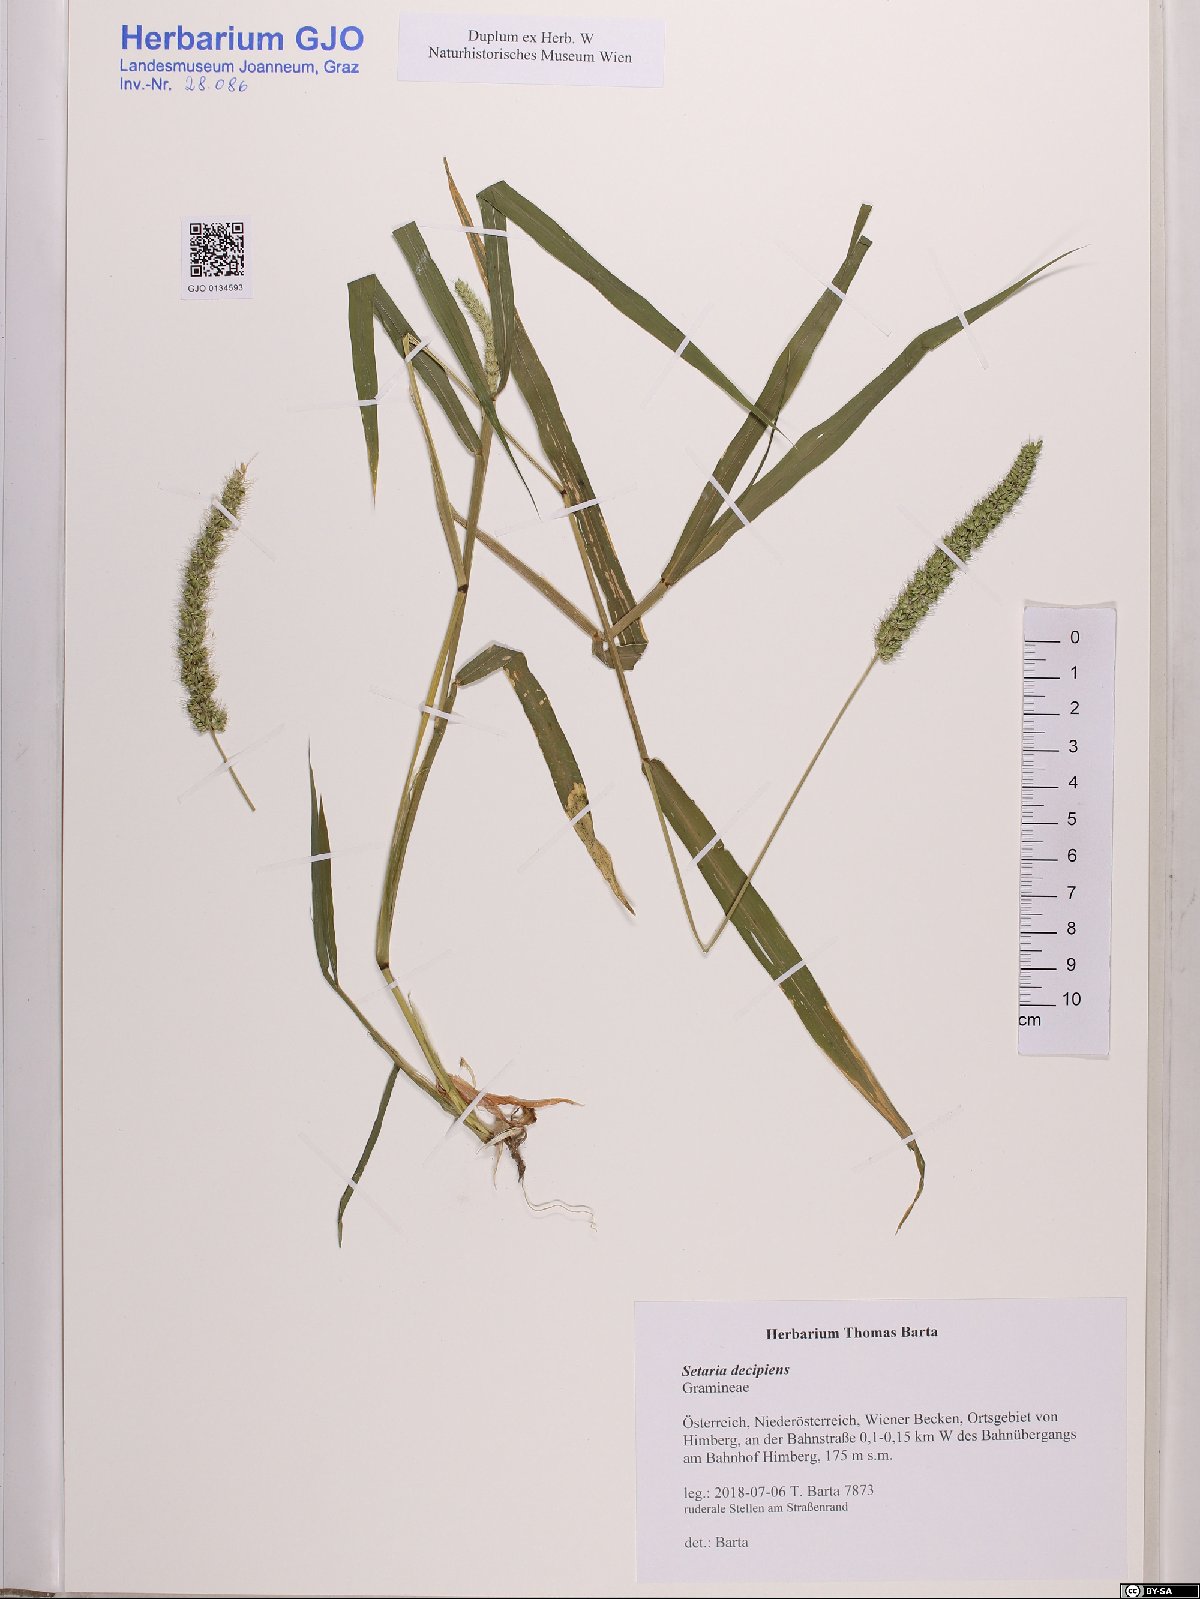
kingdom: Plantae
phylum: Tracheophyta
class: Liliopsida
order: Poales
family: Poaceae
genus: Setaria
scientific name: Setaria verticillata
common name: Hooked bristlegrass
